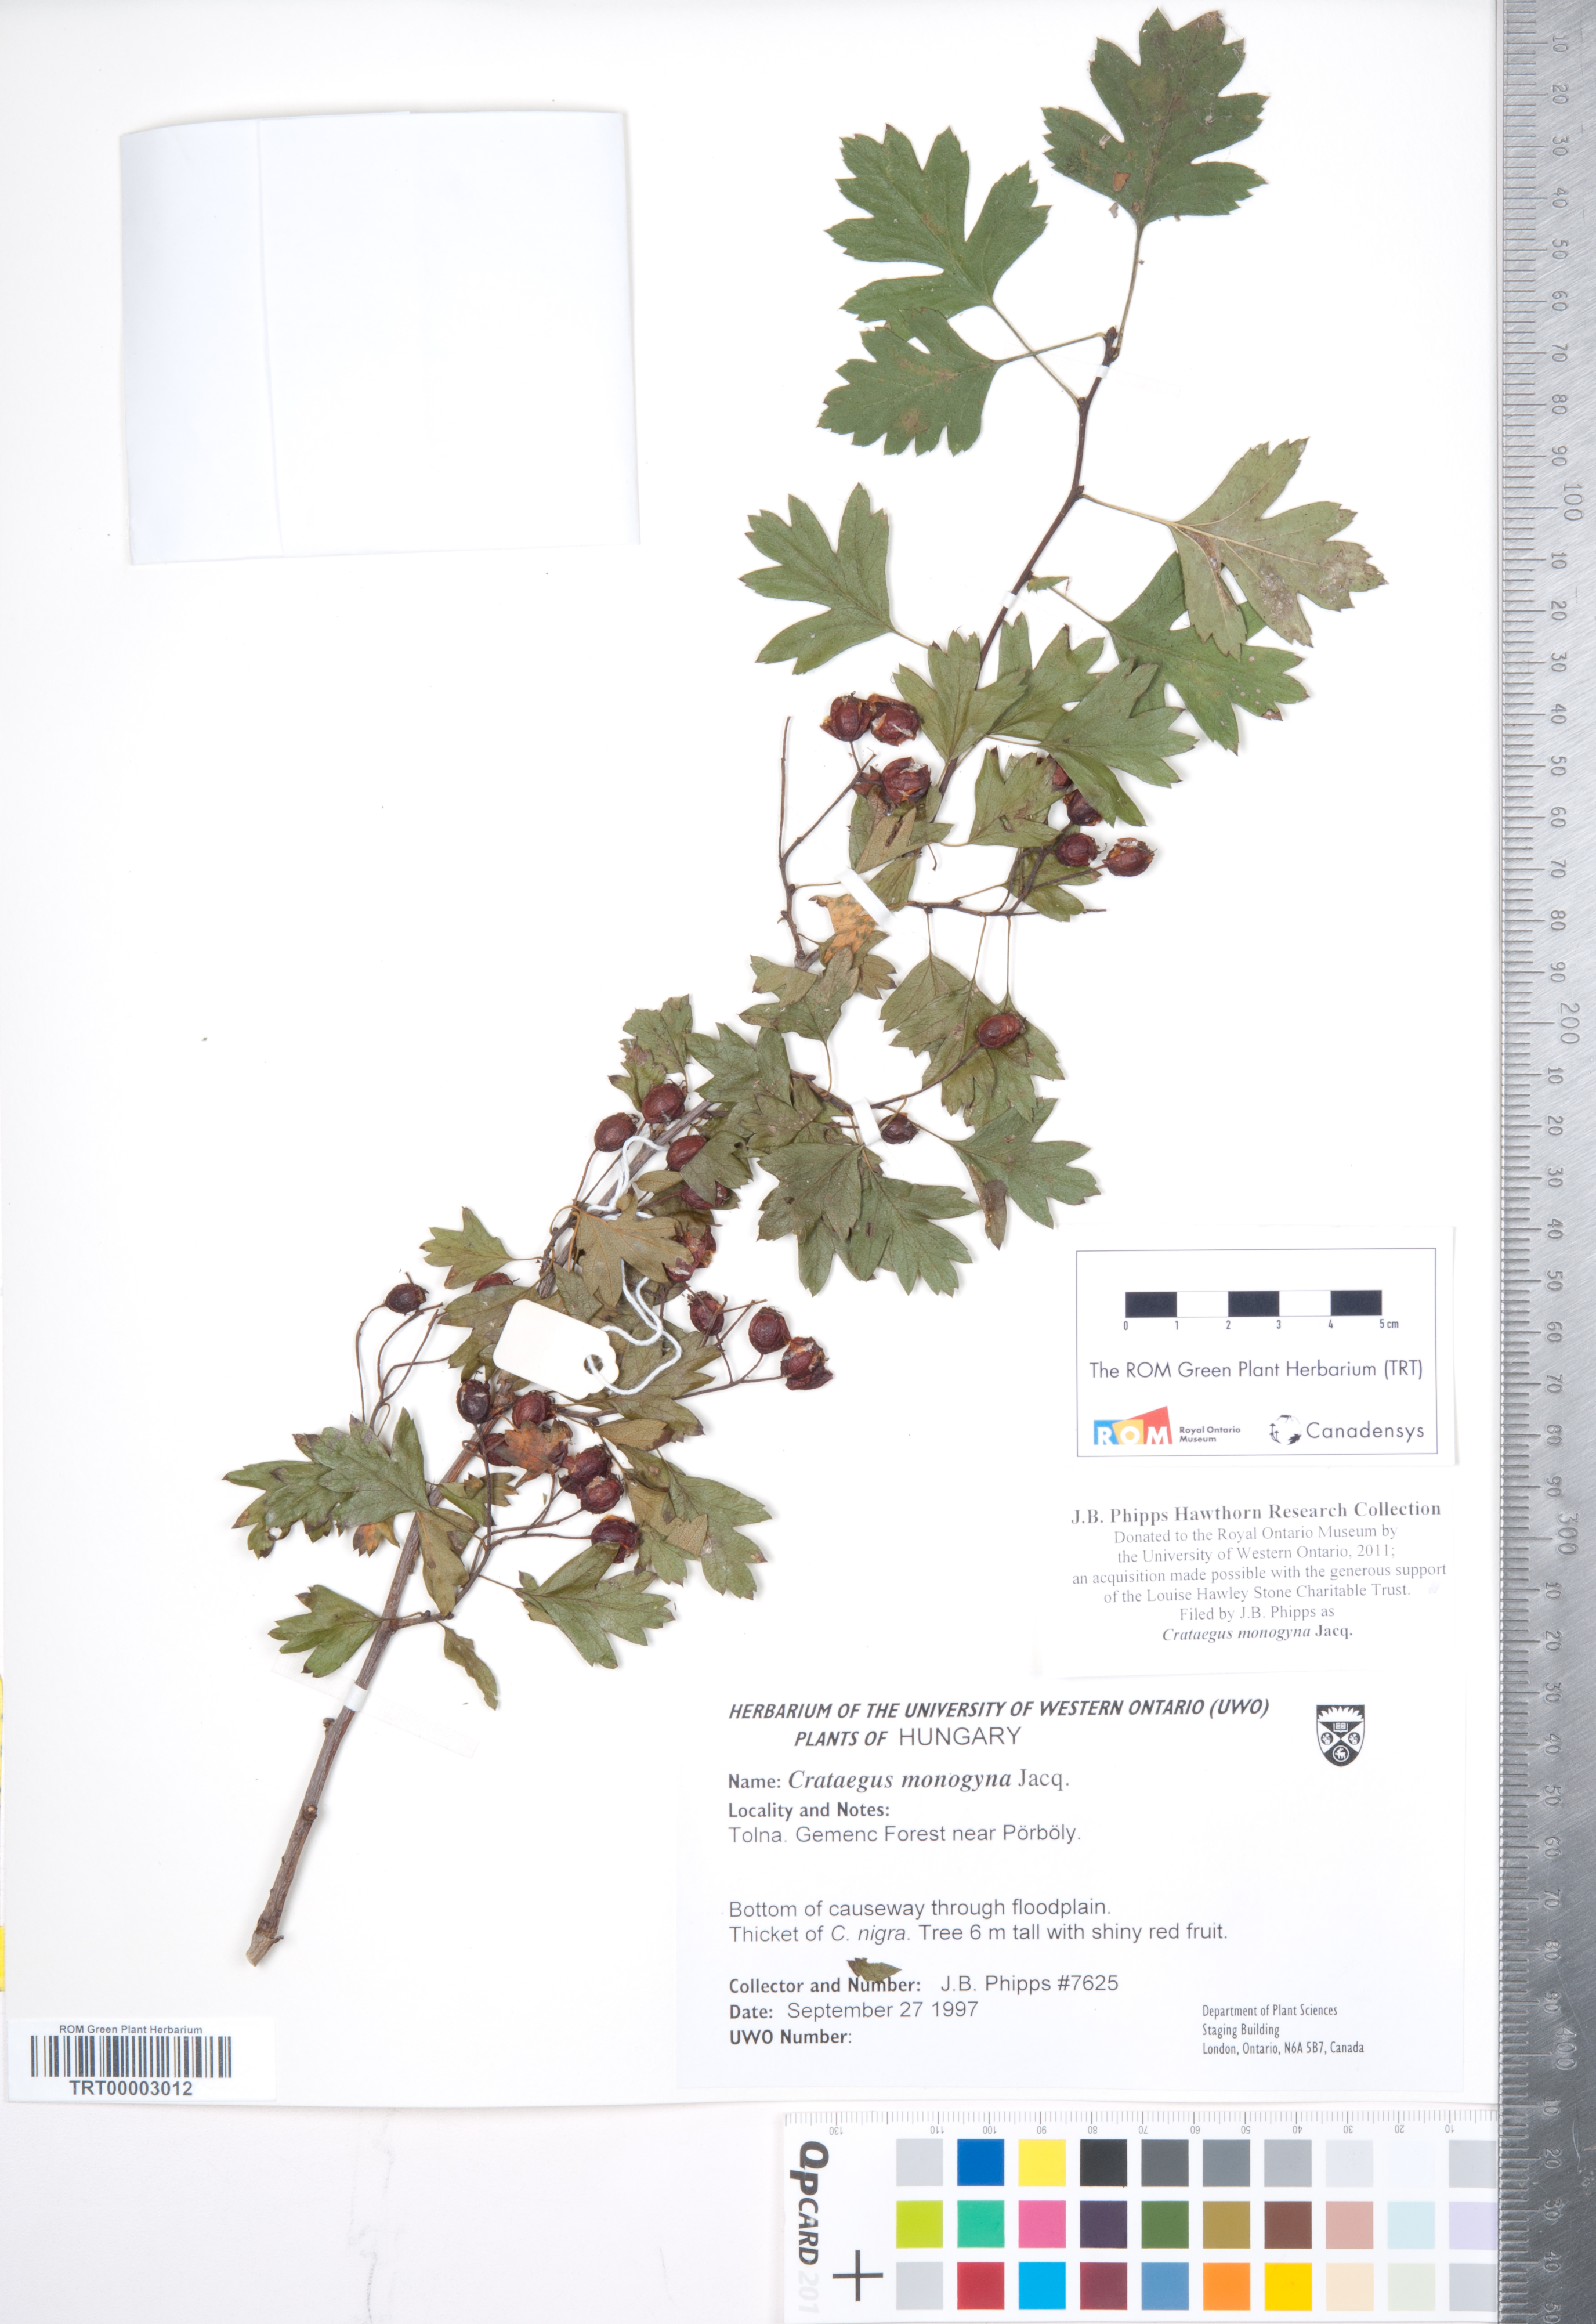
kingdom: Plantae
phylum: Tracheophyta
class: Magnoliopsida
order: Rosales
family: Rosaceae
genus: Crataegus
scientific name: Crataegus monogyna
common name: Hawthorn
